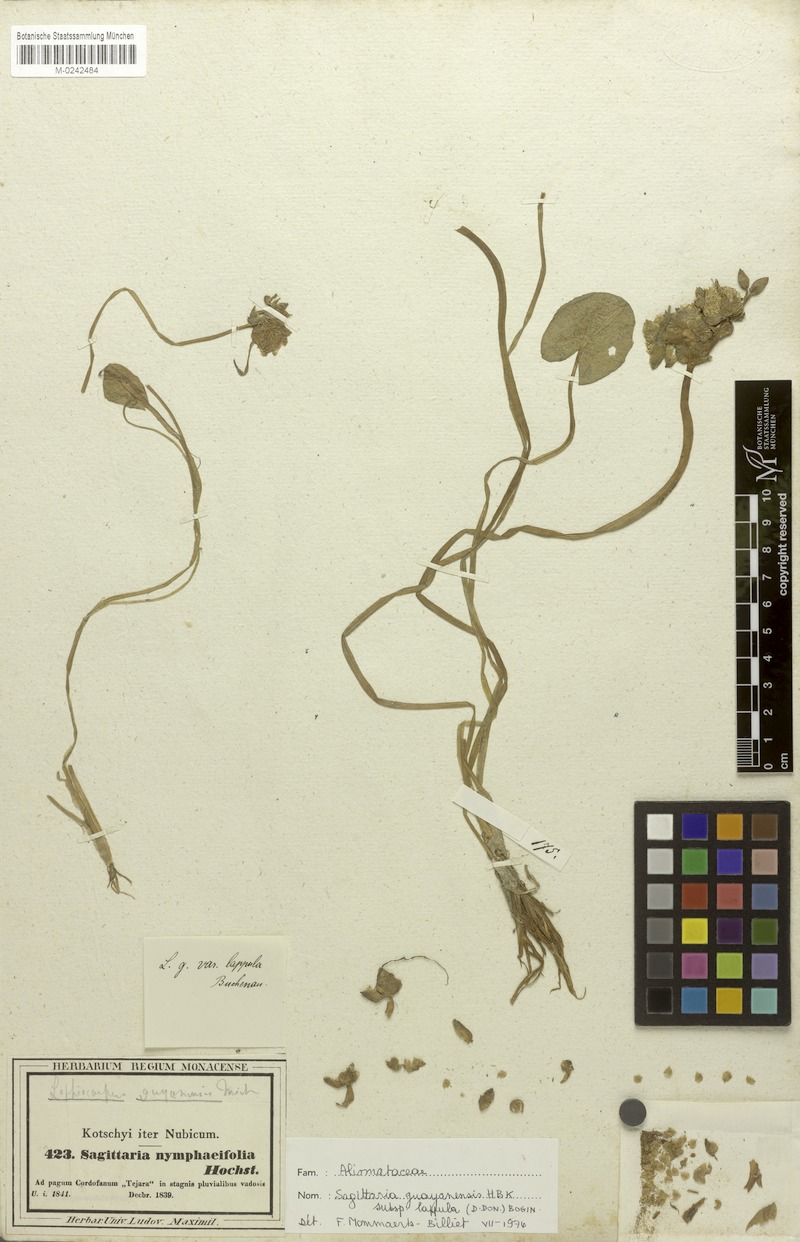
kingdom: Plantae
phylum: Tracheophyta
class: Liliopsida
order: Alismatales
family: Alismataceae
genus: Limnophyton
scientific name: Limnophyton obtusifolium
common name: Arrow head
